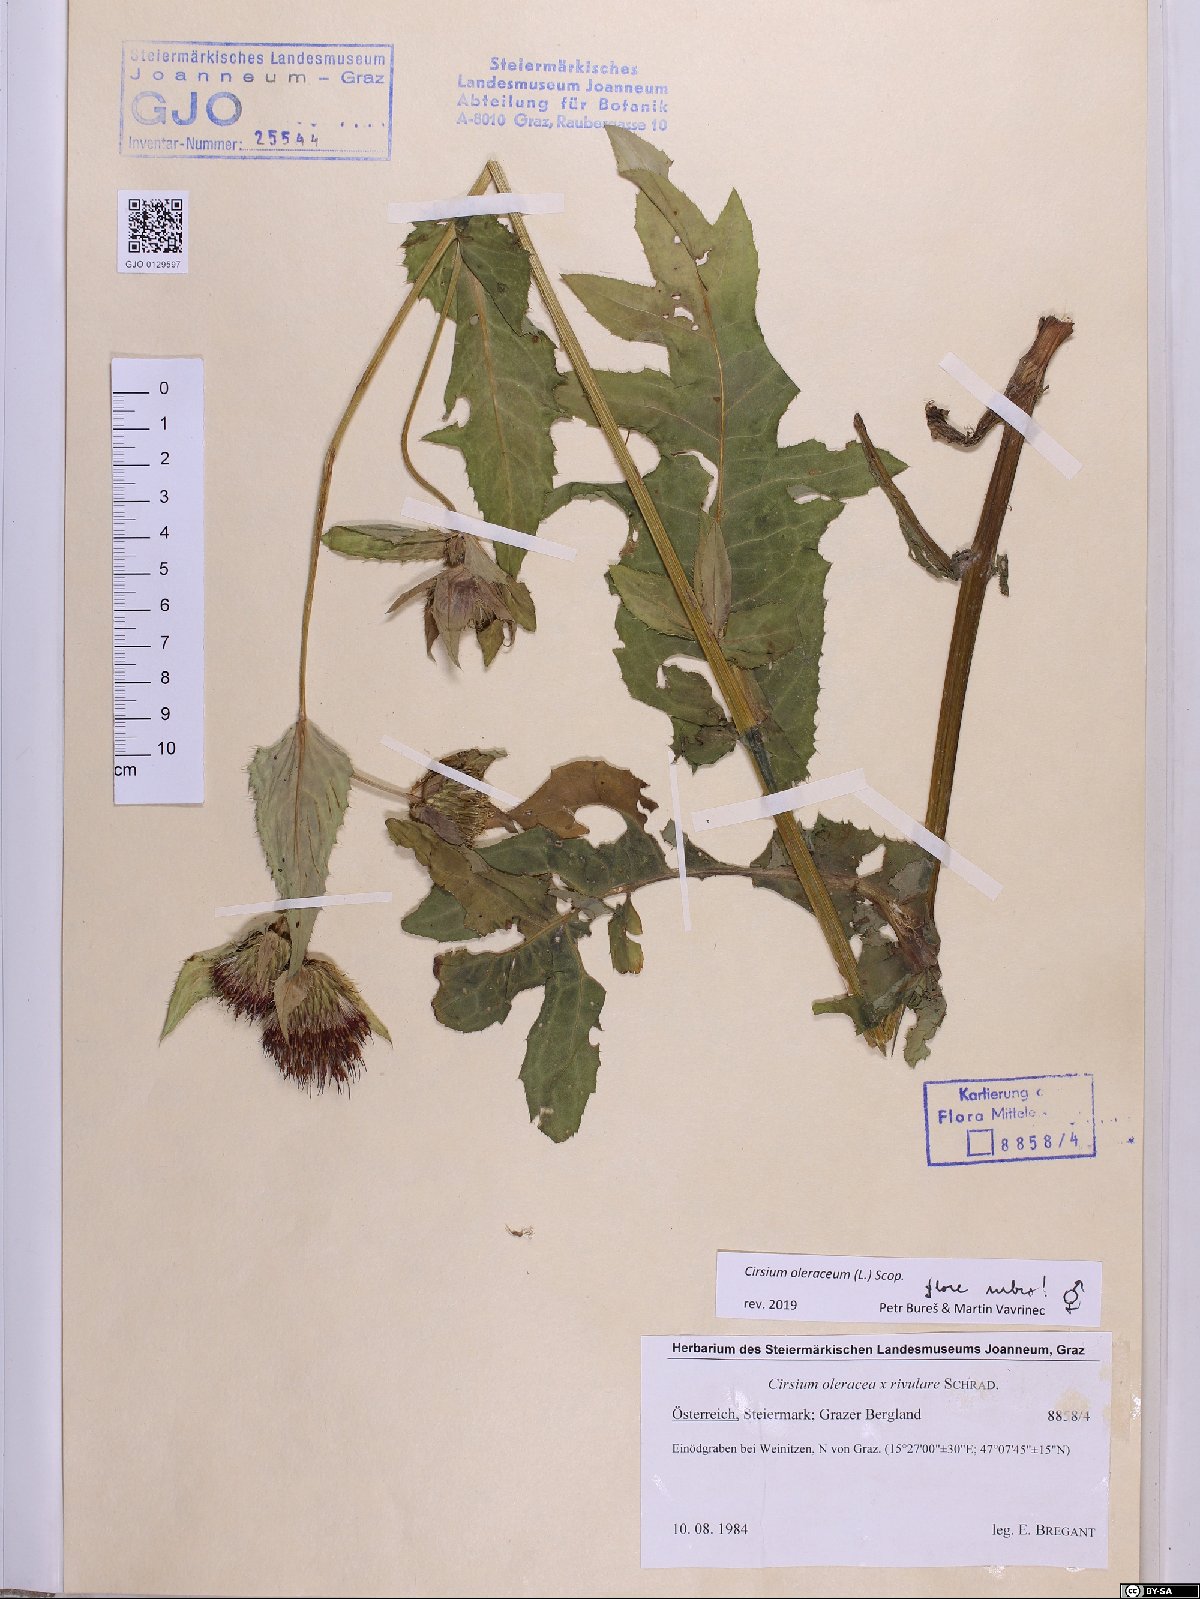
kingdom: Plantae
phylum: Tracheophyta
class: Magnoliopsida
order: Asterales
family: Asteraceae
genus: Cirsium
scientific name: Cirsium oleraceum
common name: Cabbage thistle
